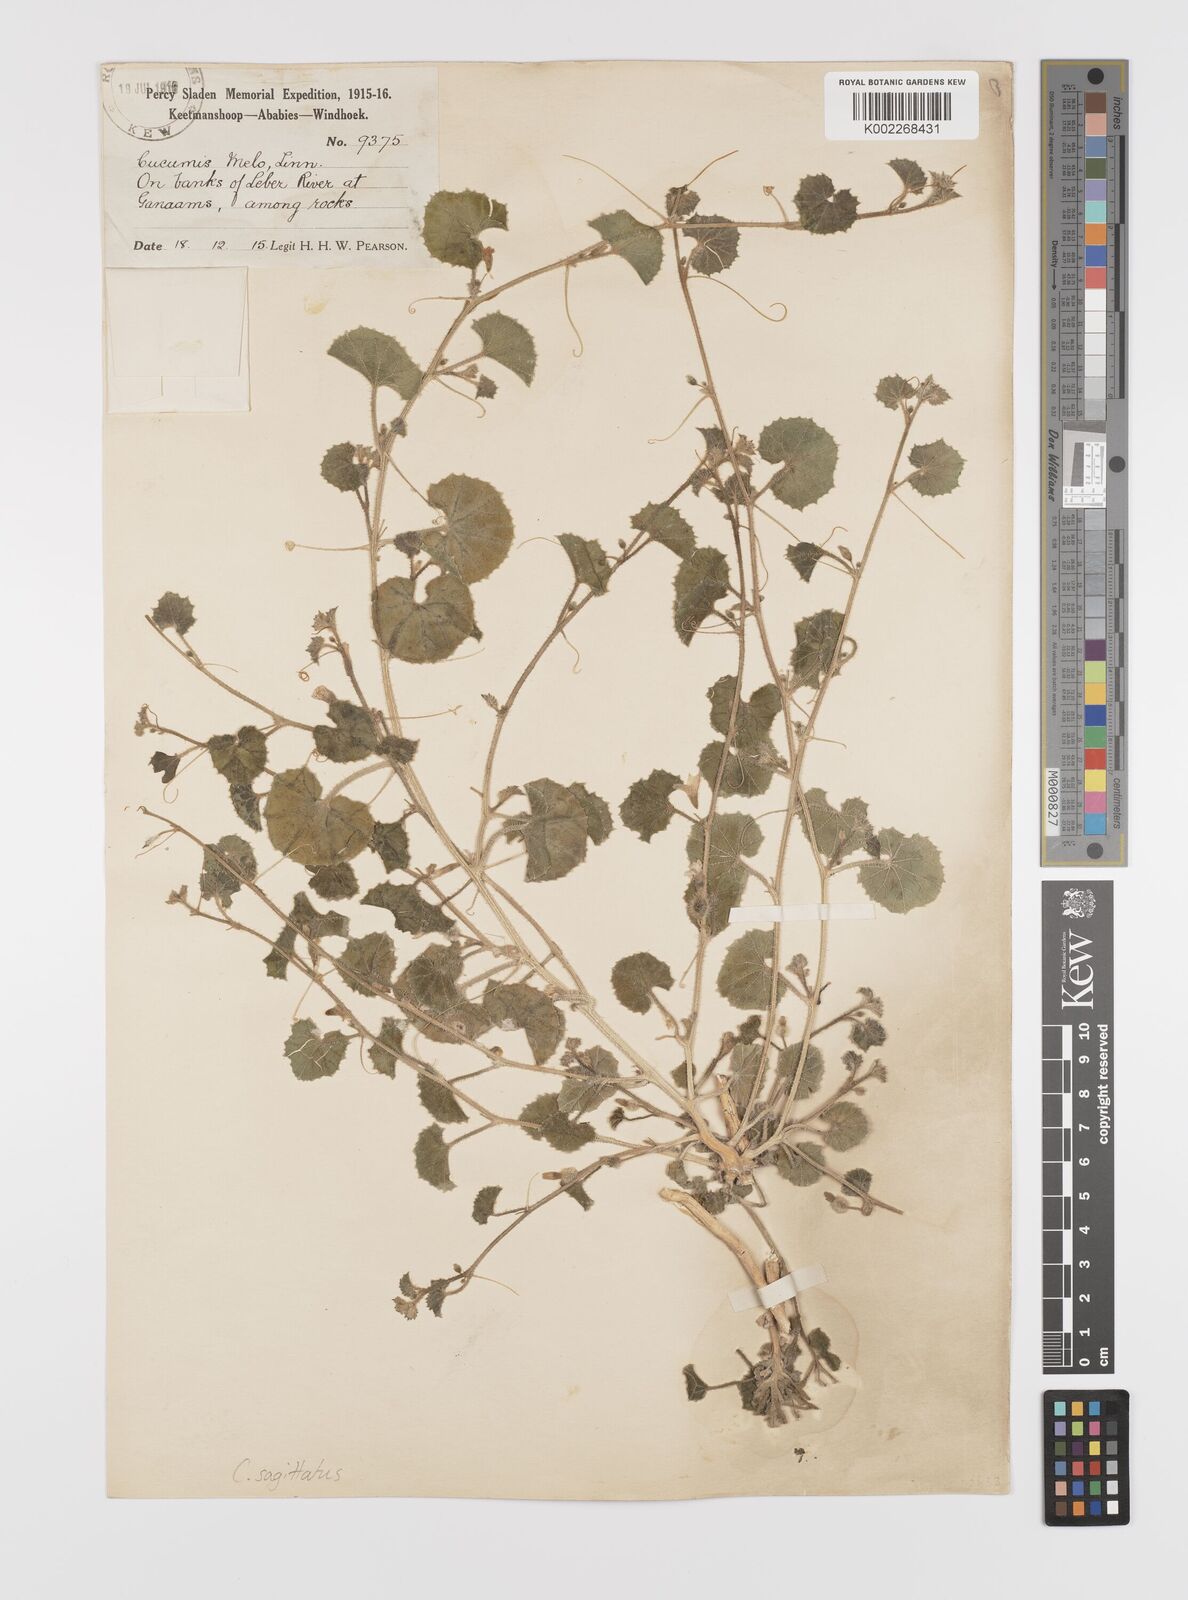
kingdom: Plantae
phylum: Tracheophyta
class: Magnoliopsida
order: Cucurbitales
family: Cucurbitaceae
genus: Cucumis
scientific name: Cucumis sagittatus
